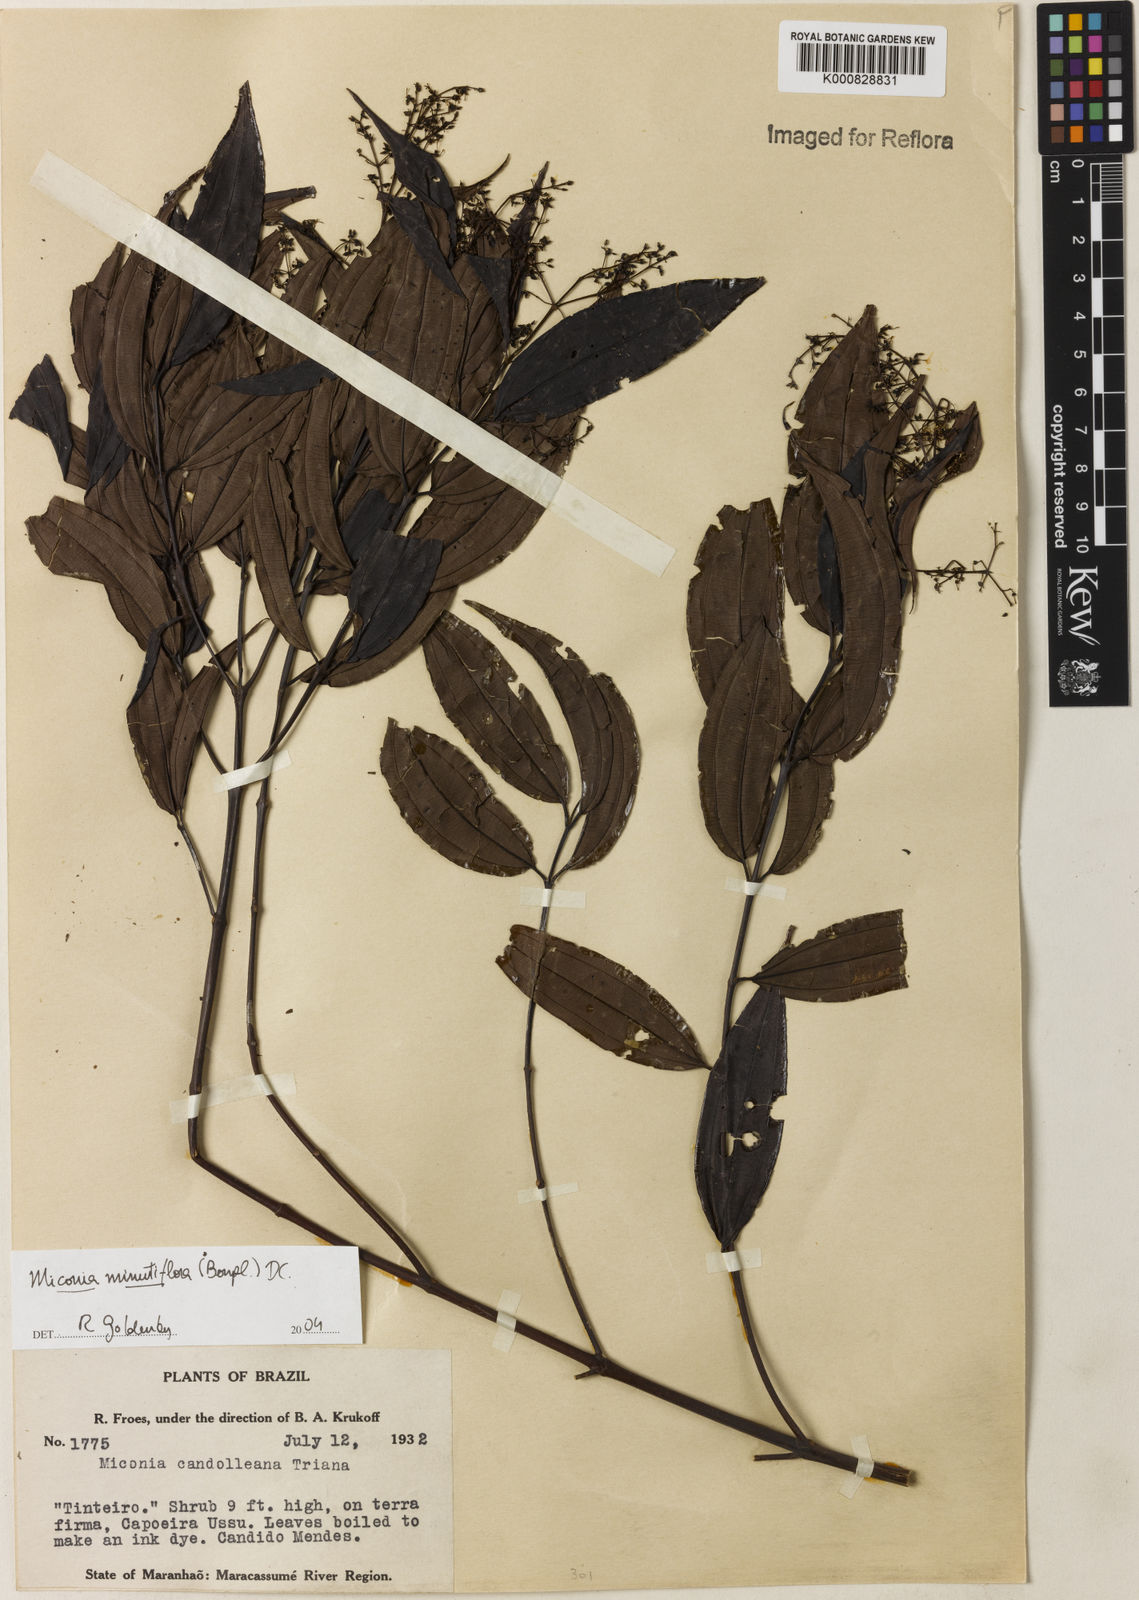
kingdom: Plantae
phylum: Tracheophyta
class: Magnoliopsida
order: Myrtales
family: Melastomataceae
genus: Miconia
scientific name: Miconia minutiflora
